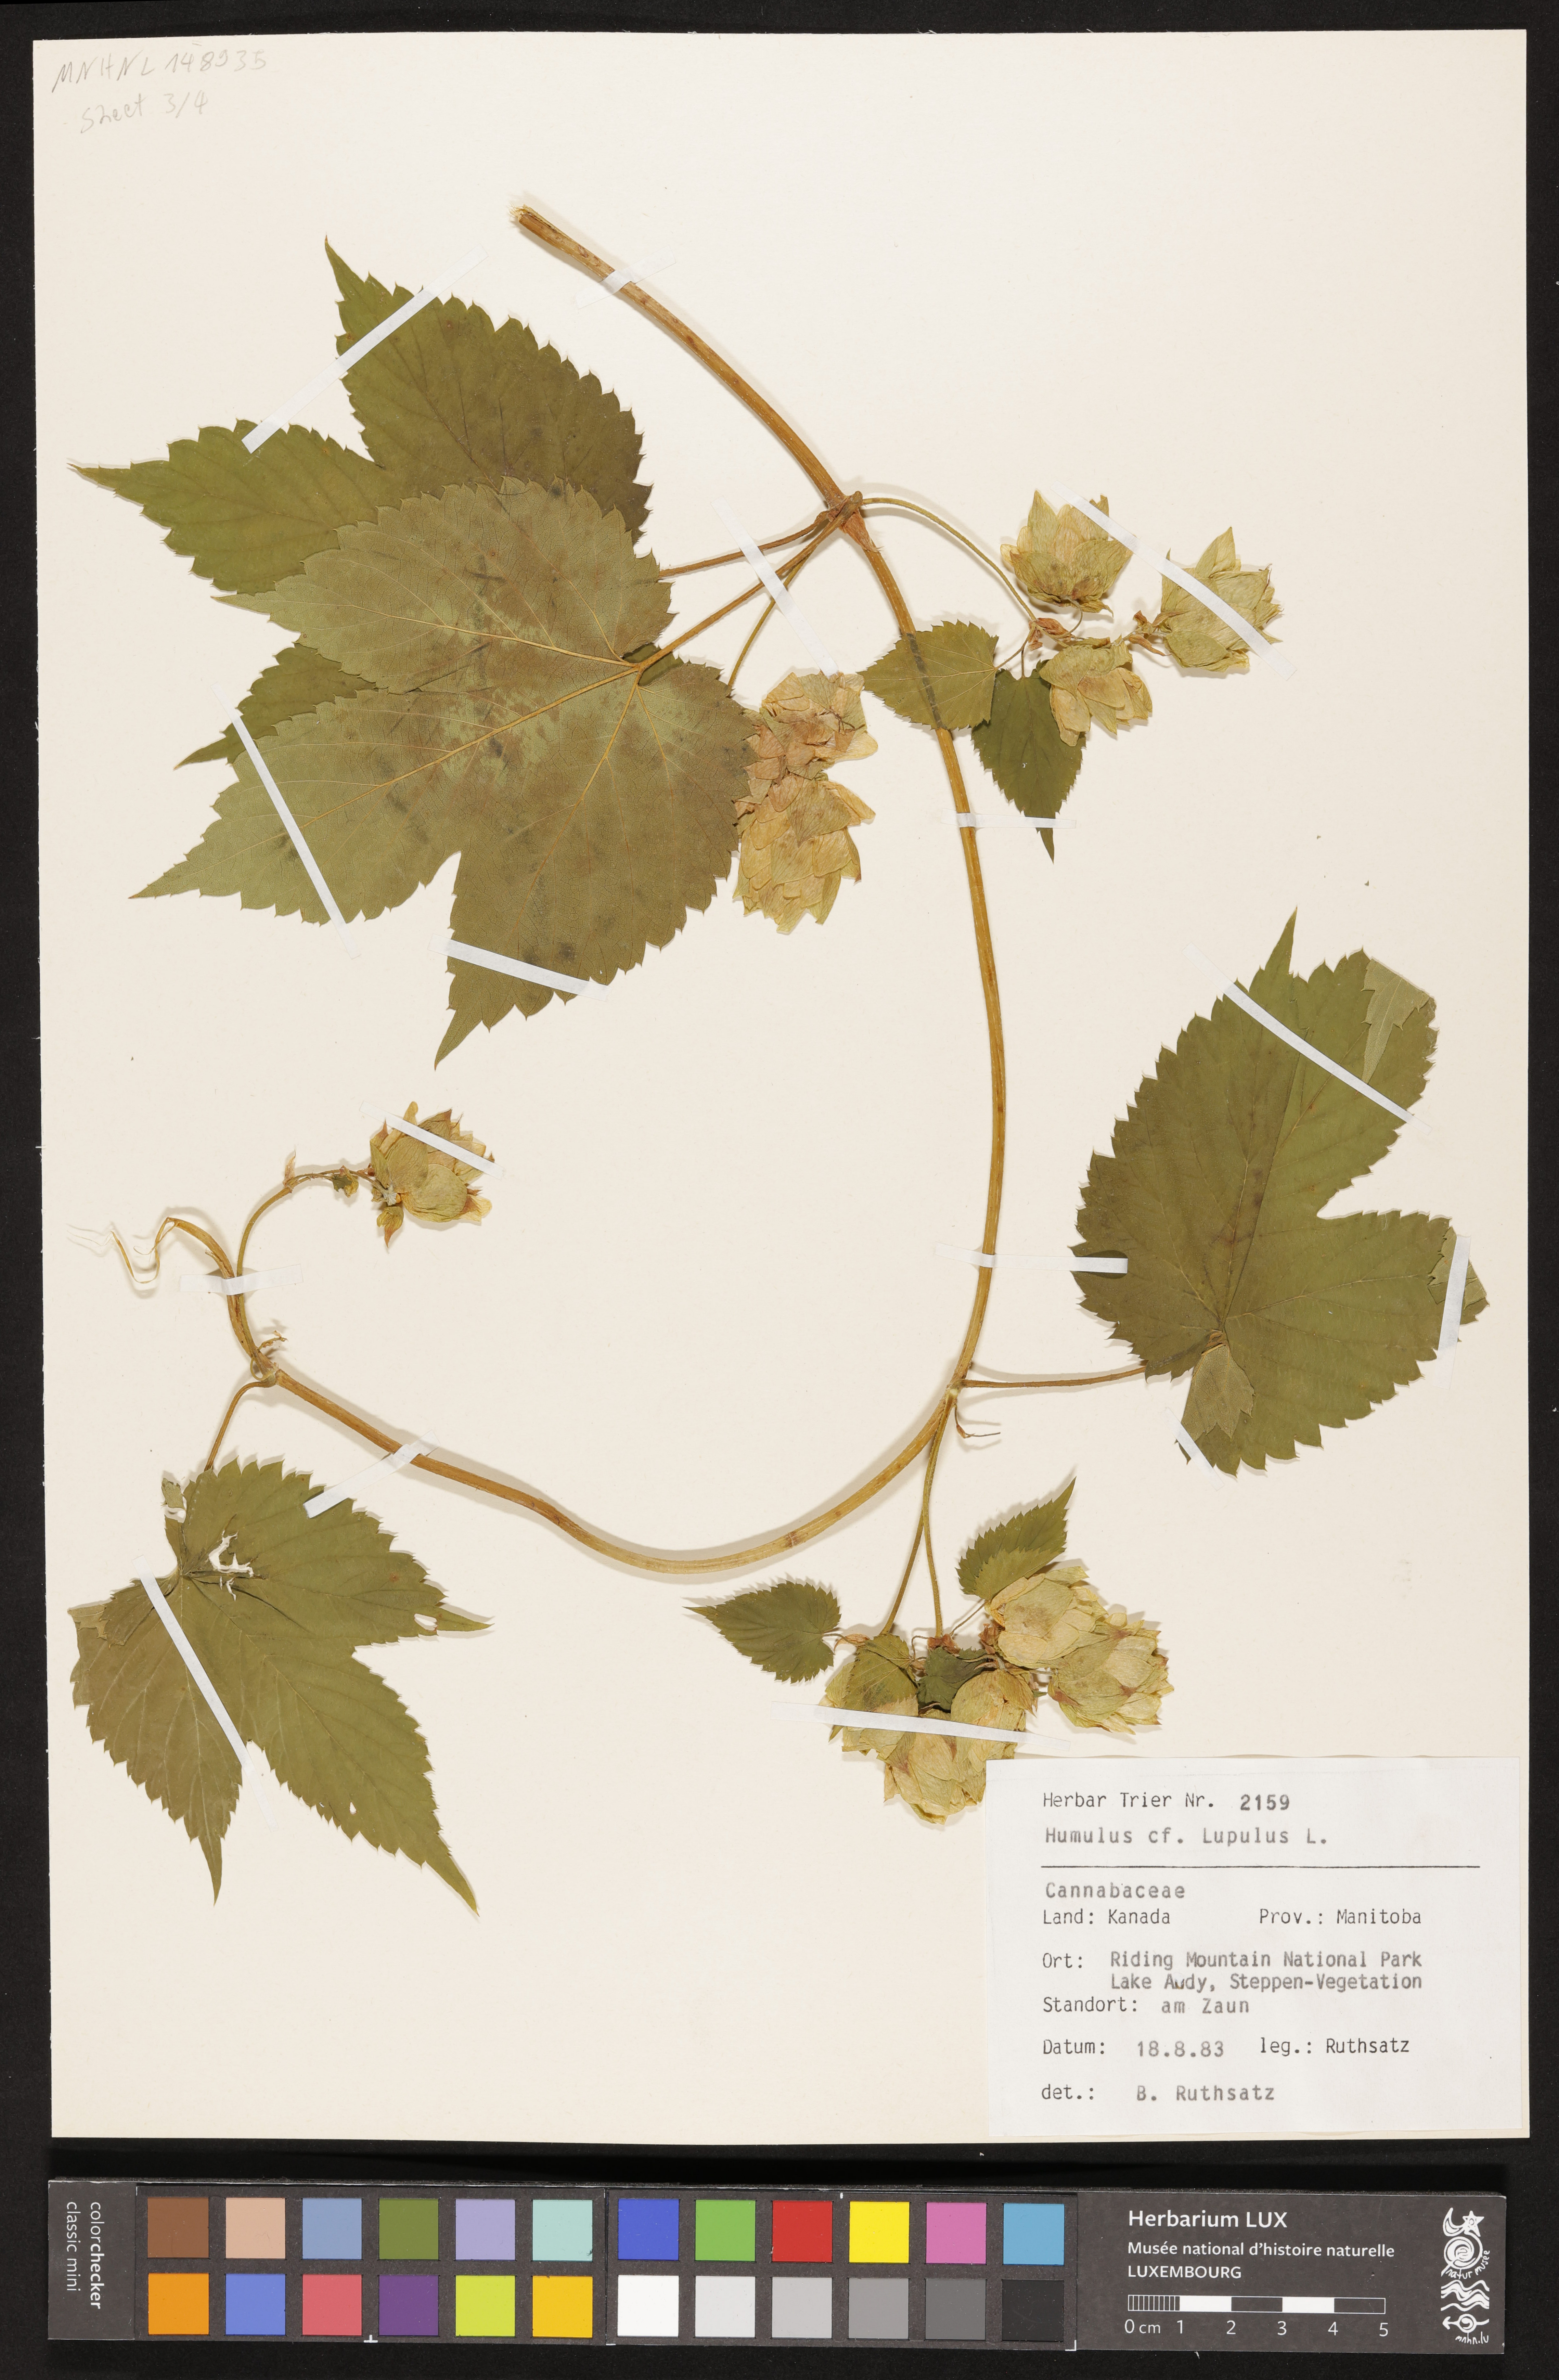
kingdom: Plantae
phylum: Tracheophyta
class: Magnoliopsida
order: Rosales
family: Cannabaceae
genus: Humulus
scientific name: Humulus lupulus
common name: Hop
